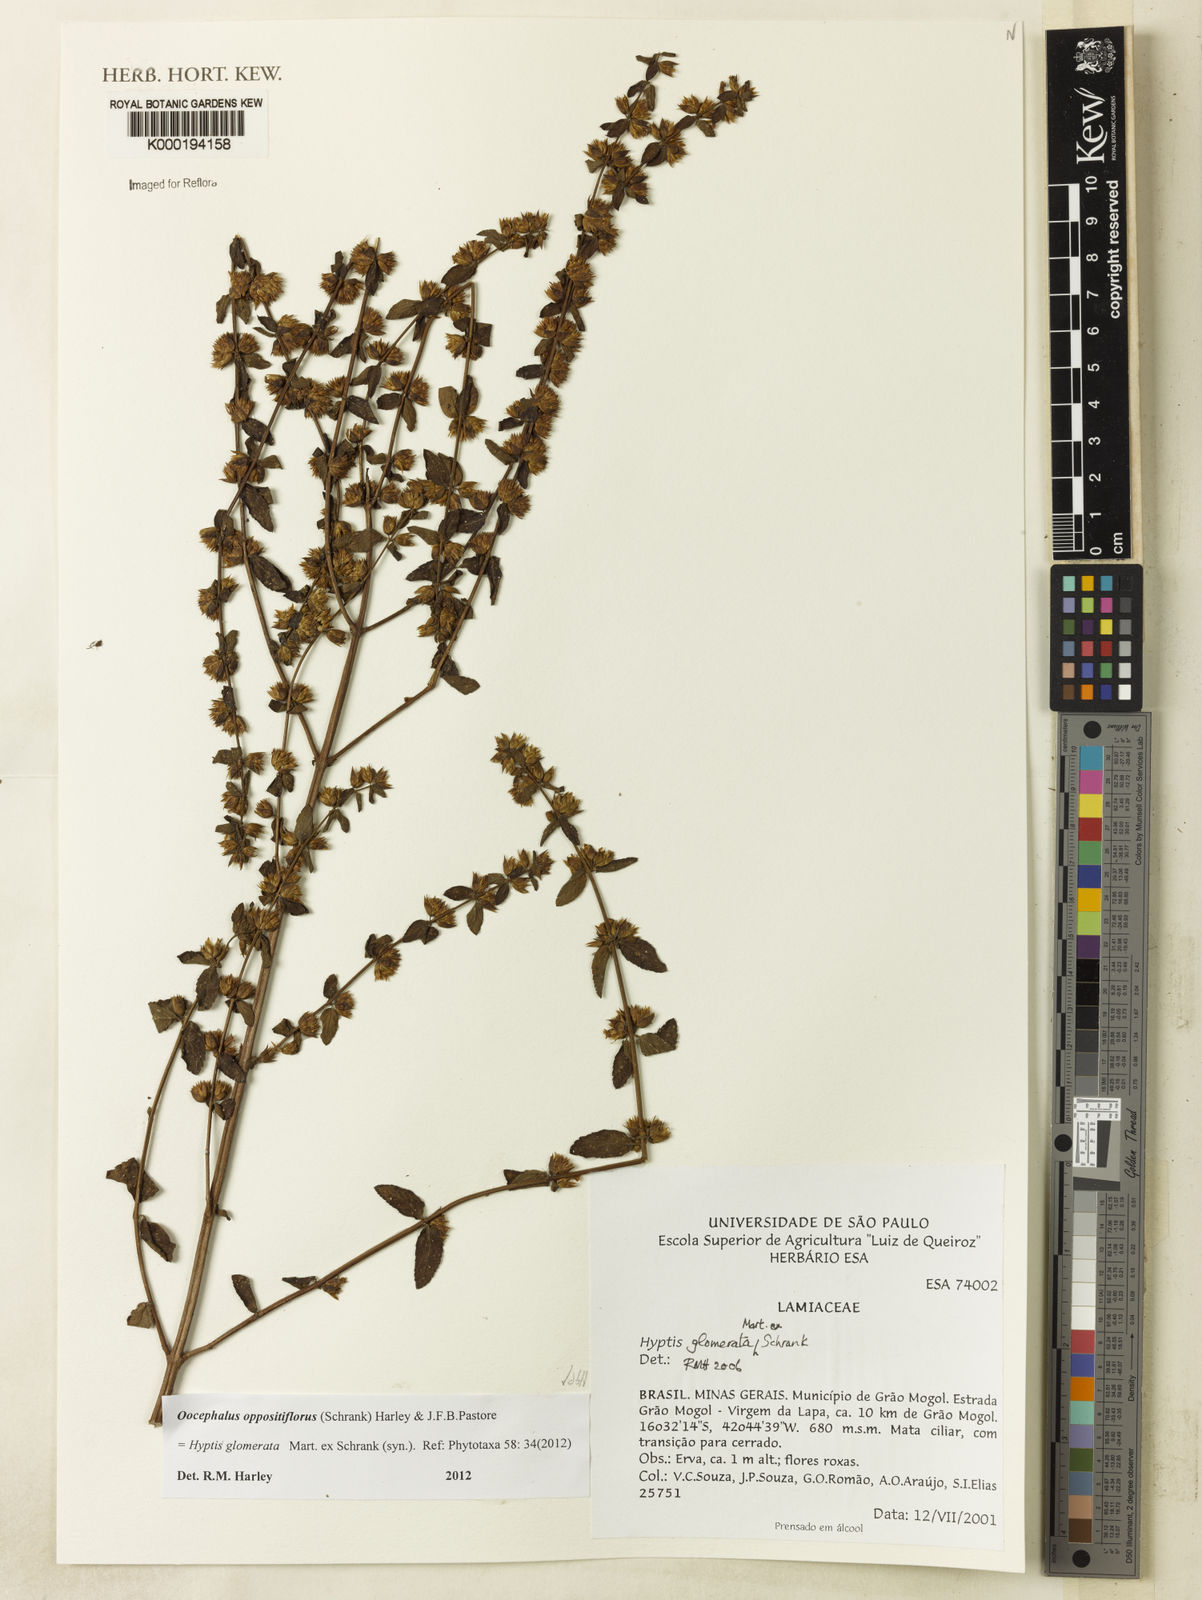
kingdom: Plantae
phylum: Tracheophyta
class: Magnoliopsida
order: Lamiales
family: Lamiaceae
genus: Oocephalus
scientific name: Oocephalus oppositiflorus
